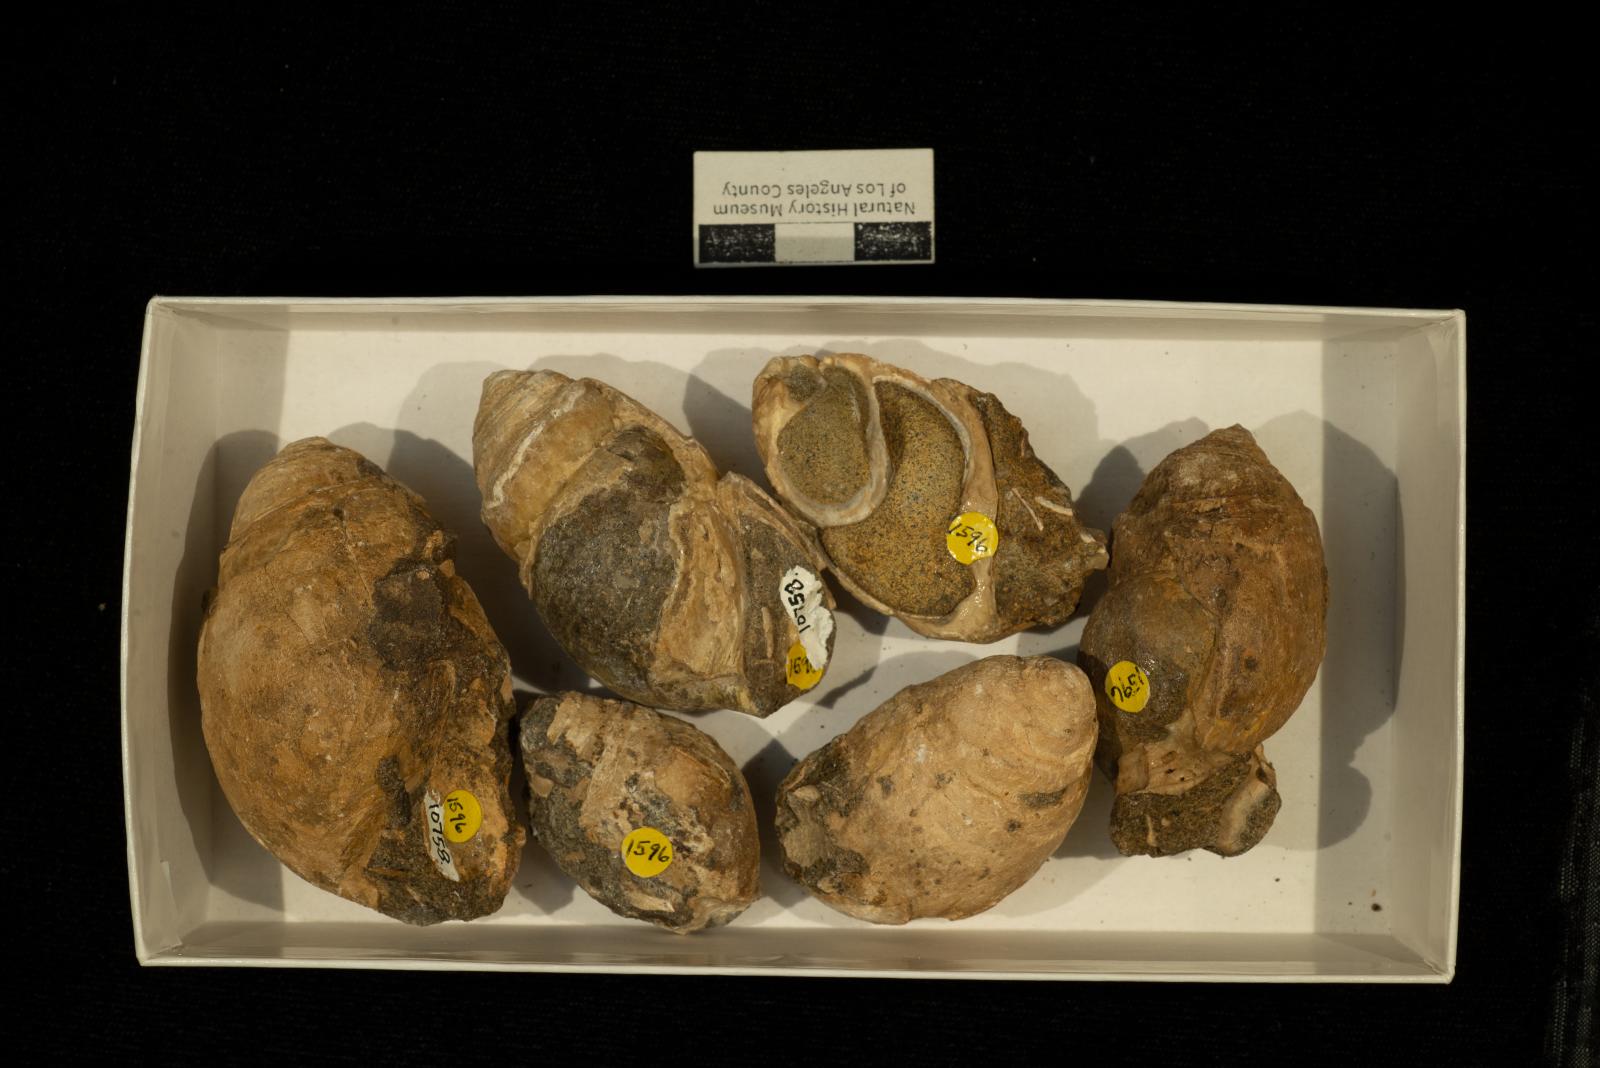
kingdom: Animalia
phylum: Mollusca
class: Gastropoda
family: Pseudomelaniidae
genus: Paosia
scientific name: Paosia Acteonina ursula
